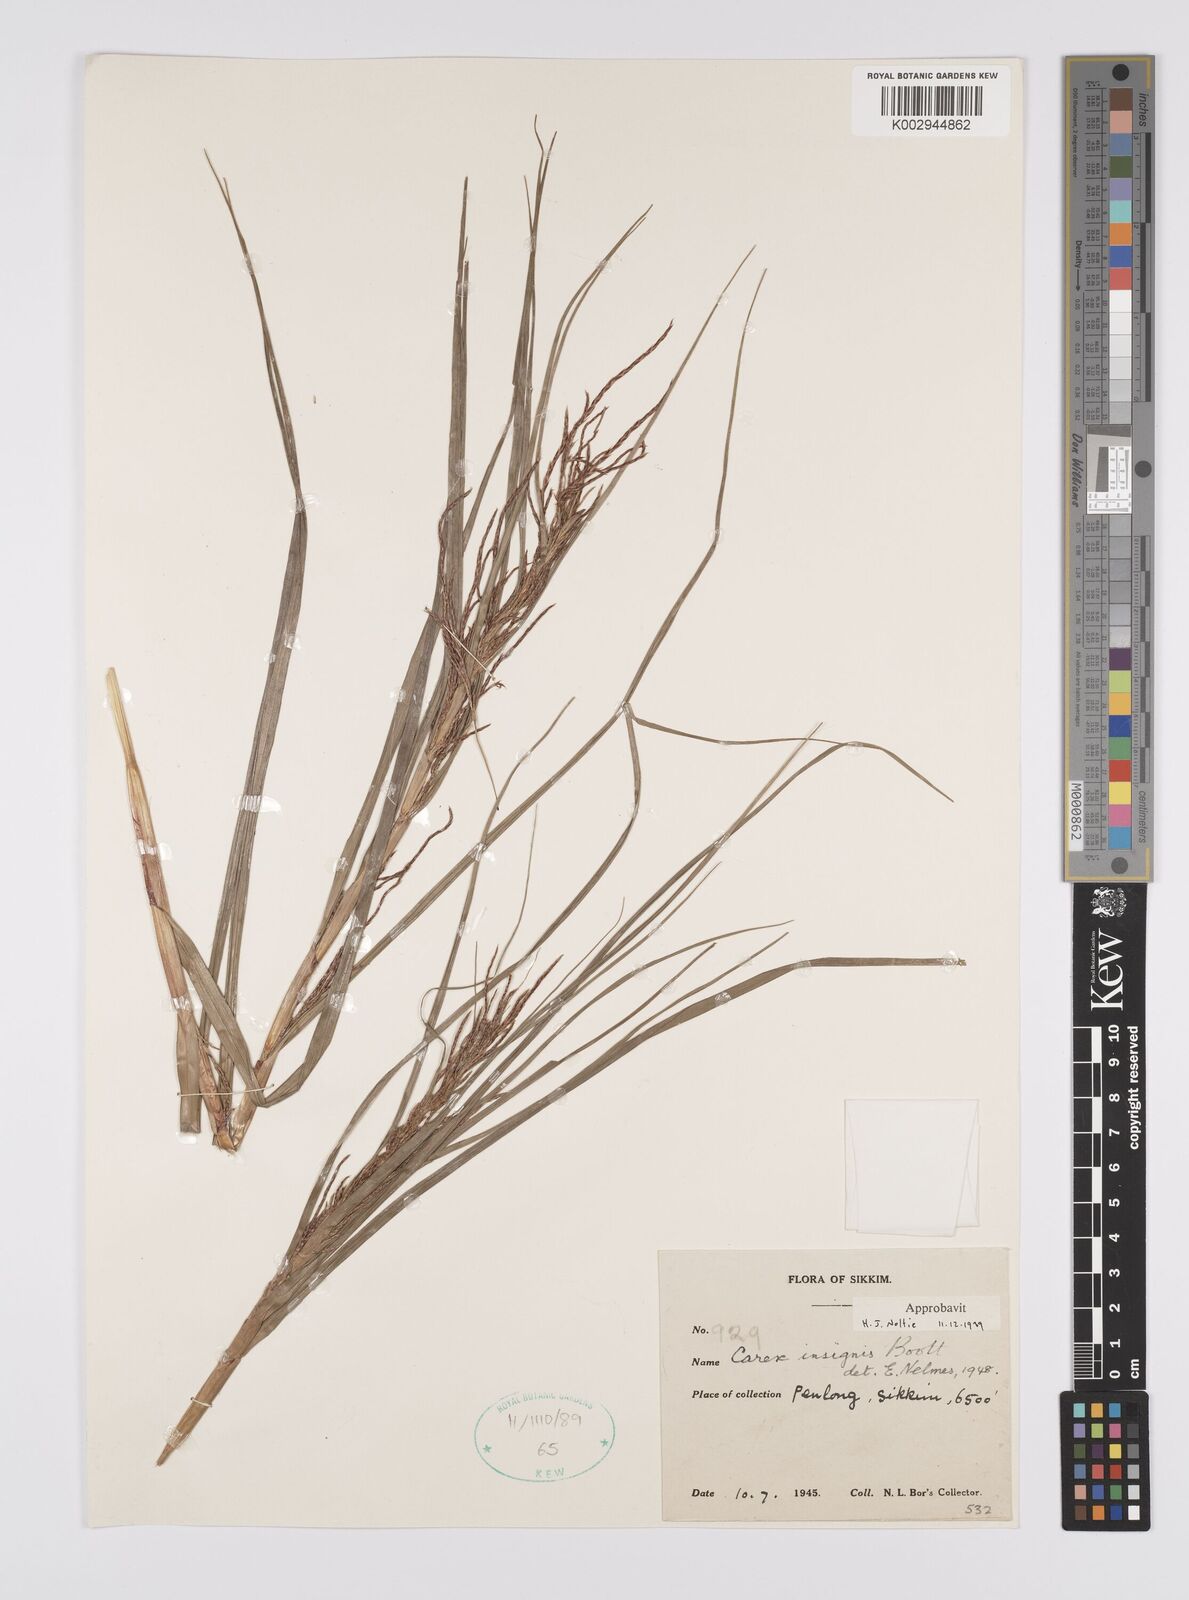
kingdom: Plantae
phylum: Tracheophyta
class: Liliopsida
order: Poales
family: Cyperaceae
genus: Carex
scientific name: Carex insignis
